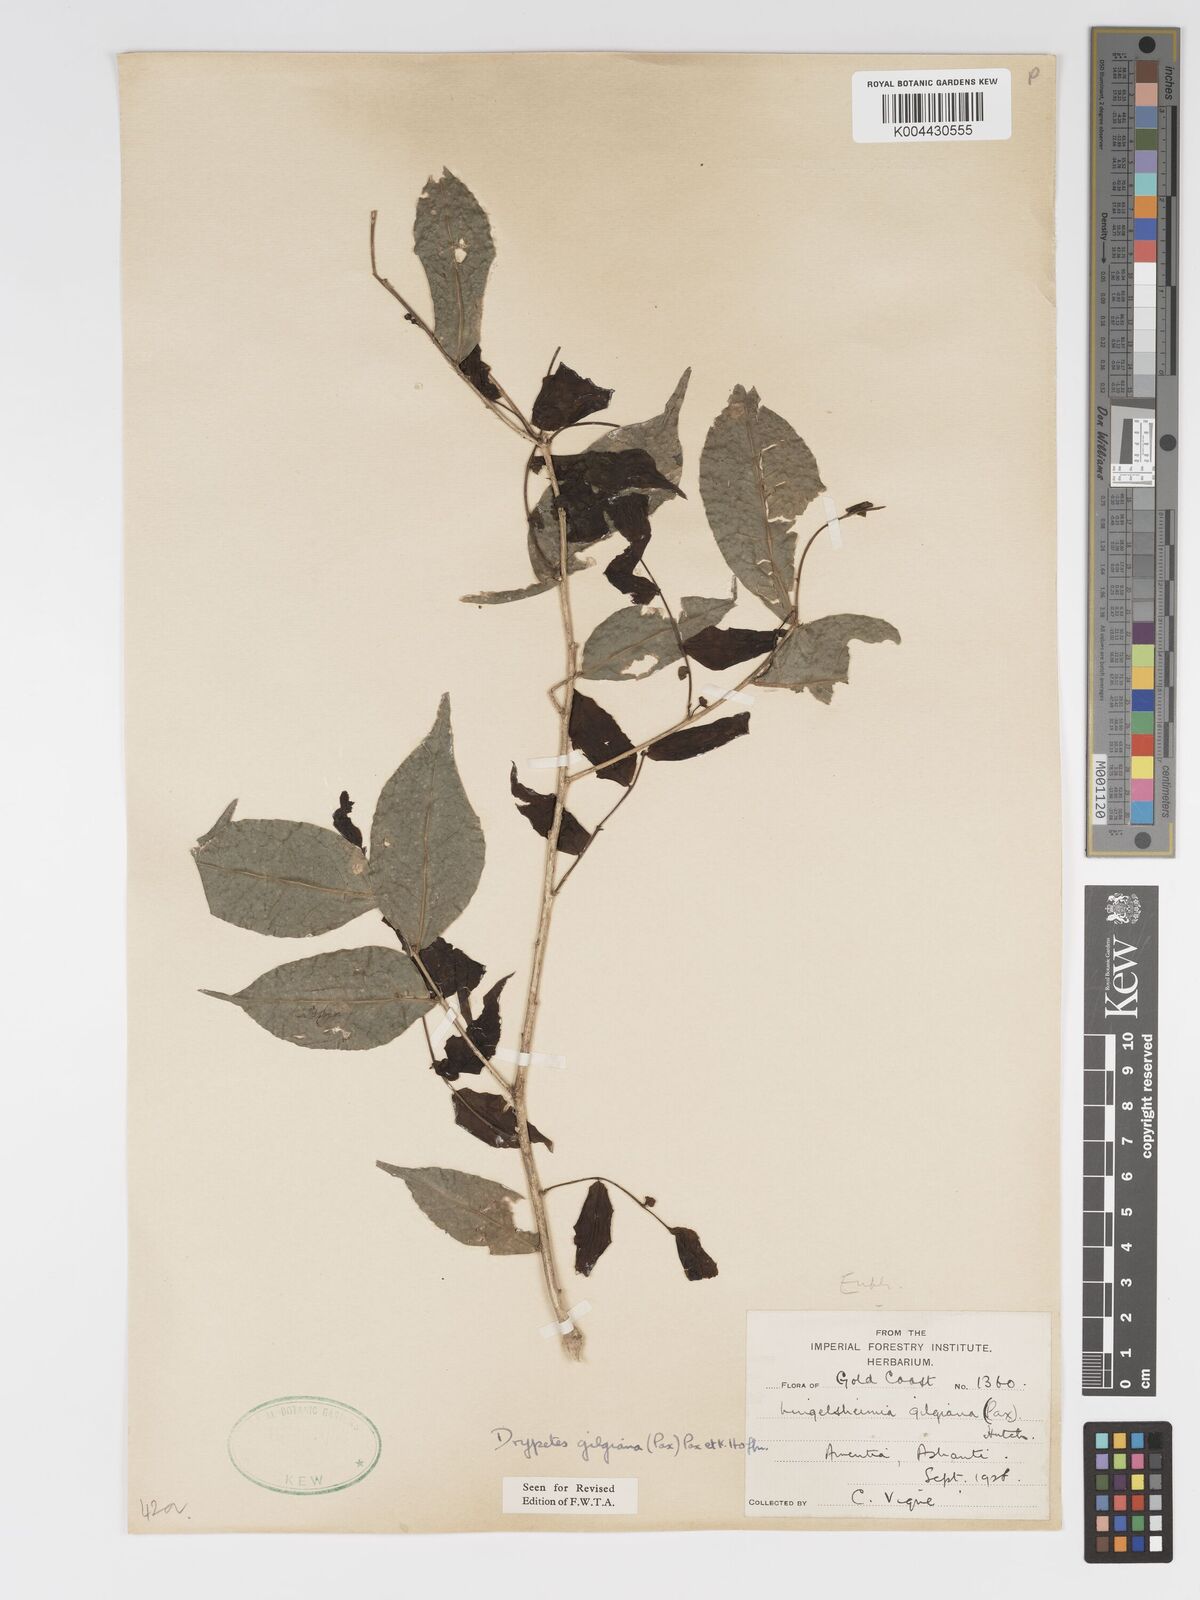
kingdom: Plantae
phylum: Tracheophyta
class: Magnoliopsida
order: Malpighiales
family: Putranjivaceae
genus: Drypetes
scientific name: Drypetes gilgiana
